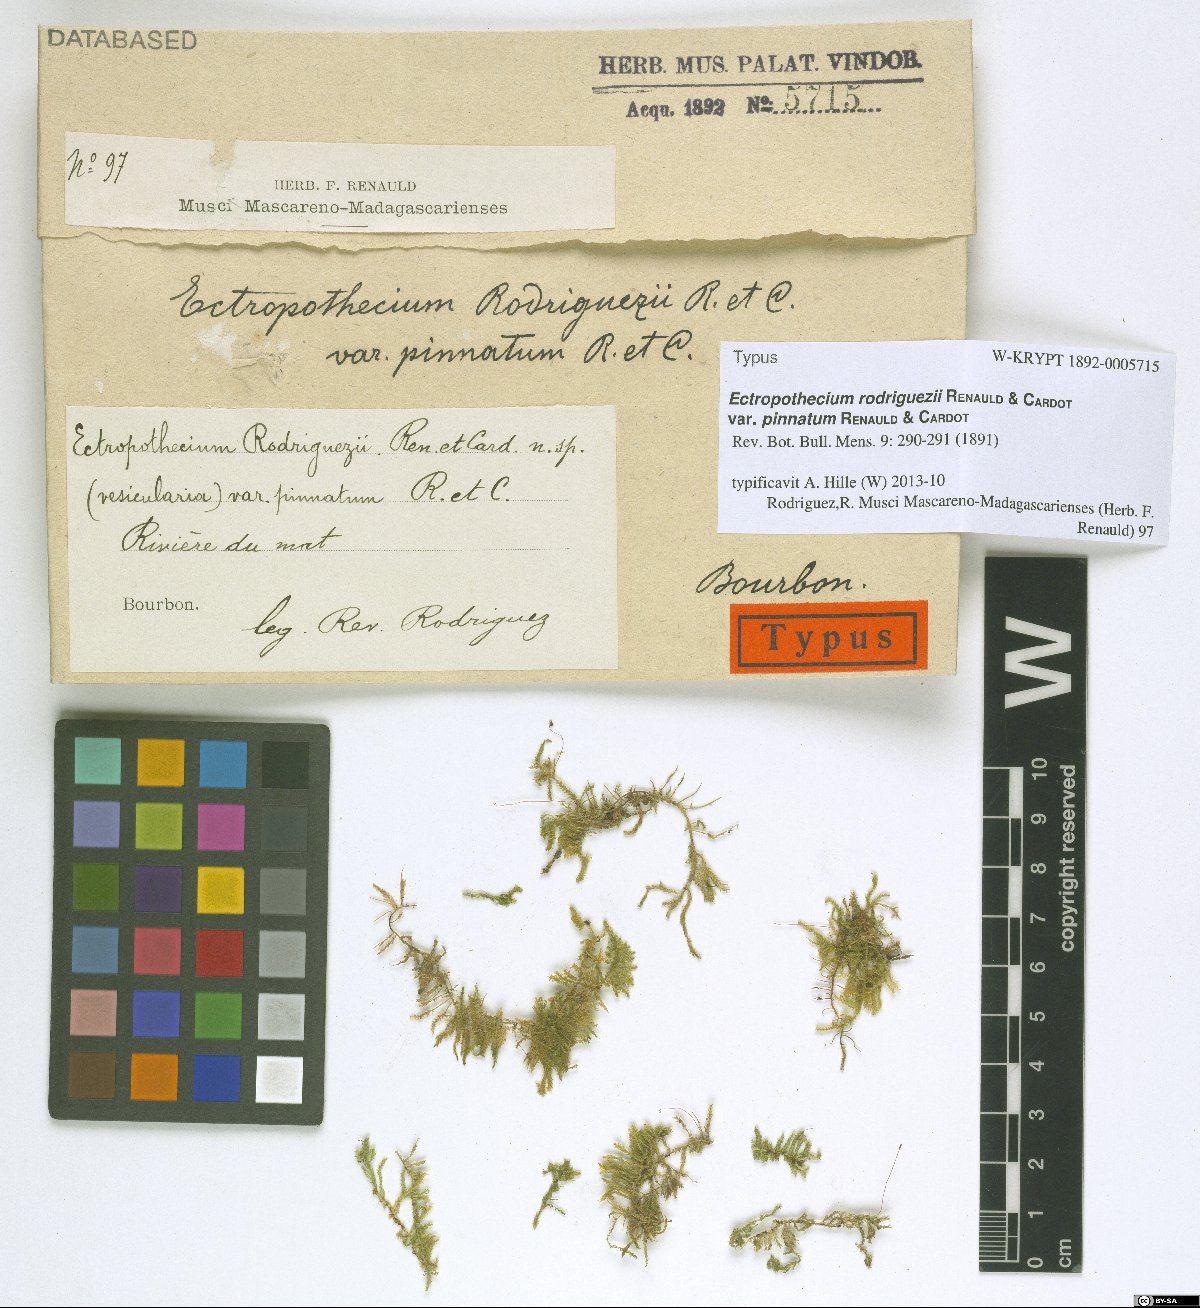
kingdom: Plantae
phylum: Bryophyta
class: Bryopsida
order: Hypnales
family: Hypnaceae
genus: Vesicularia
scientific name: Vesicularia rodriguezii
